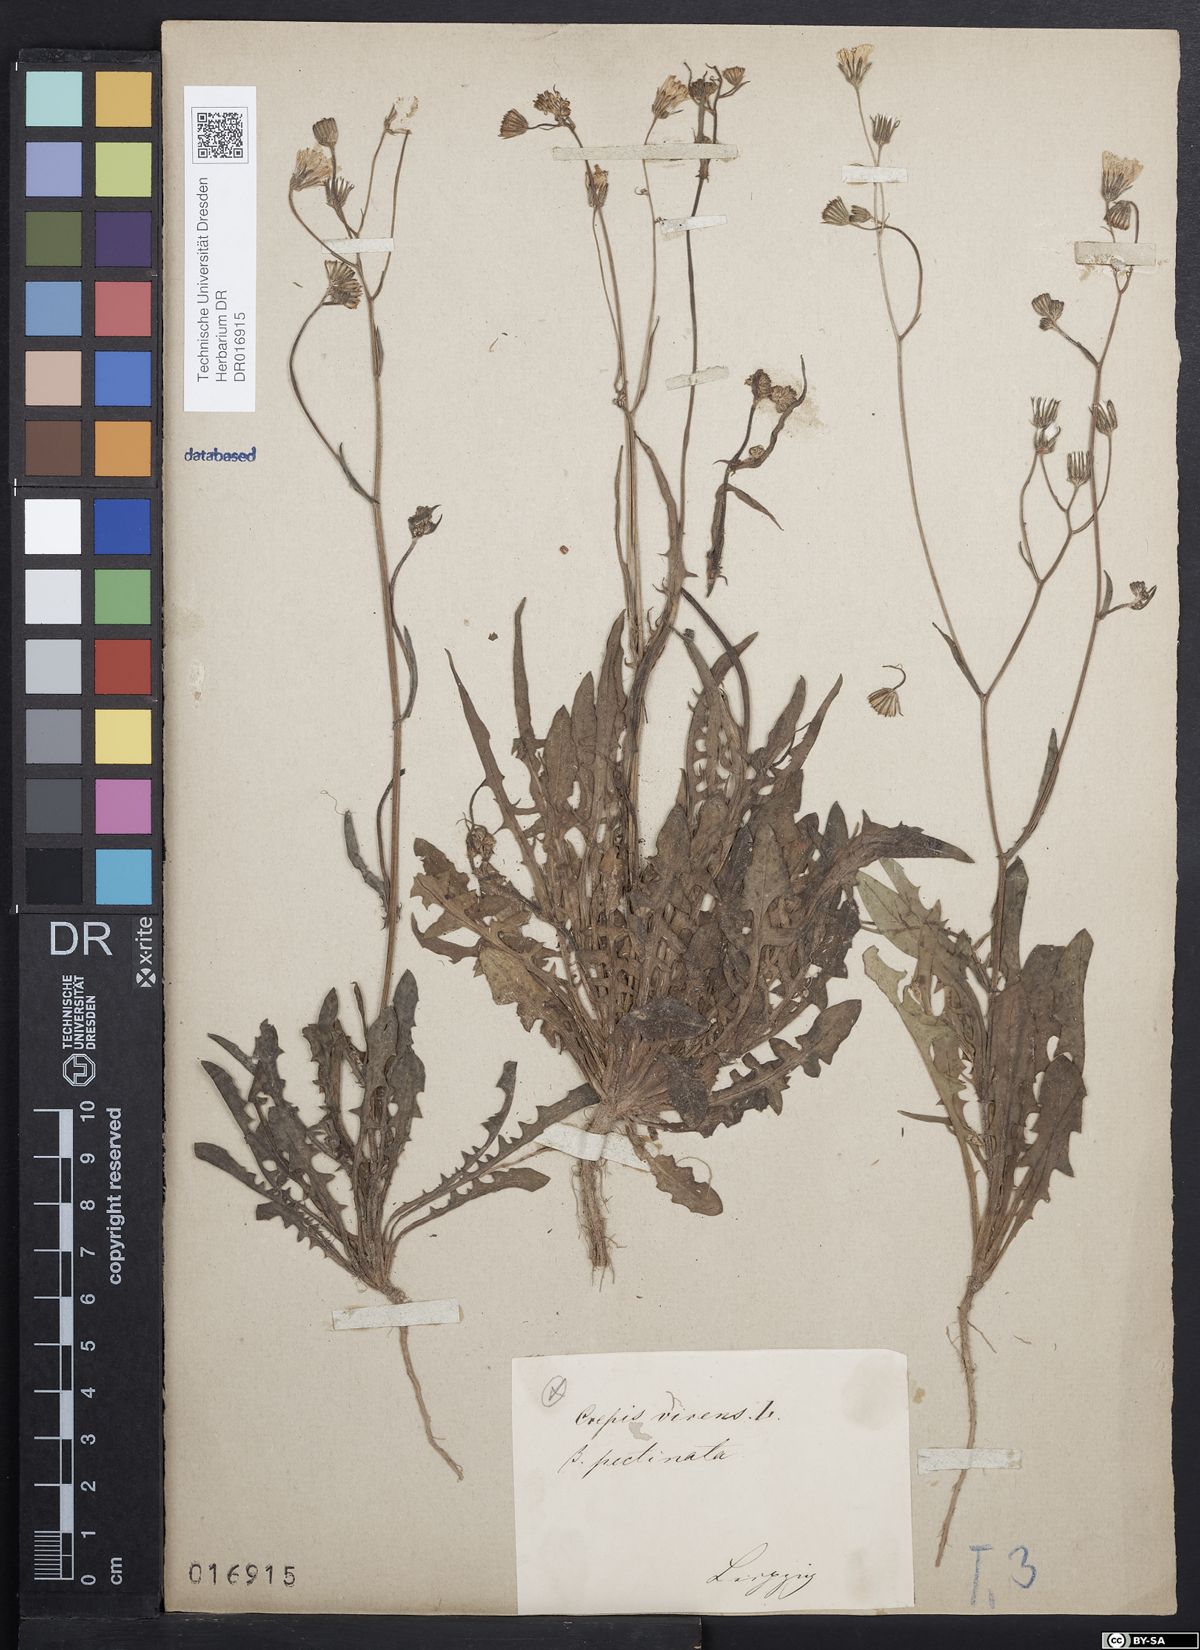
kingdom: Plantae
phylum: Tracheophyta
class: Magnoliopsida
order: Asterales
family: Asteraceae
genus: Crepis
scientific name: Crepis capillaris
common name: Smooth hawksbeard
